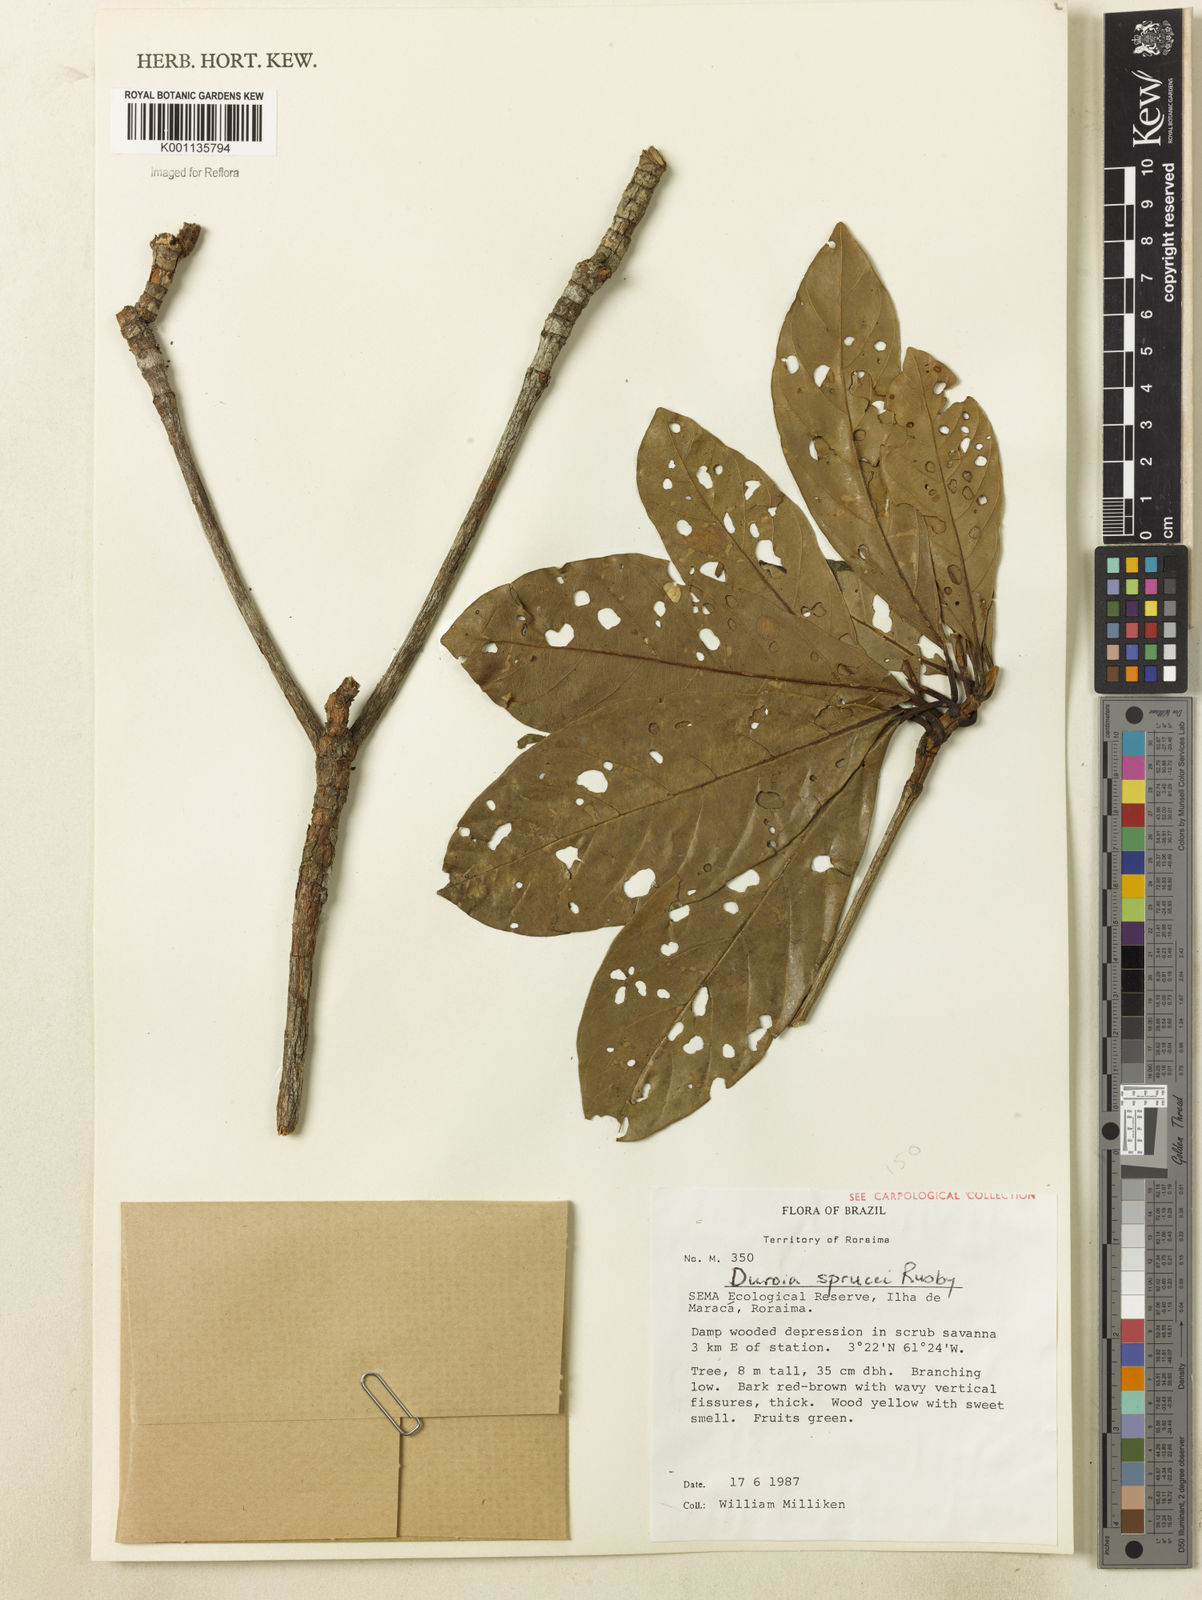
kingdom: Plantae
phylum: Tracheophyta
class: Magnoliopsida
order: Gentianales
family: Rubiaceae
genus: Duroia
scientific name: Duroia micrantha
